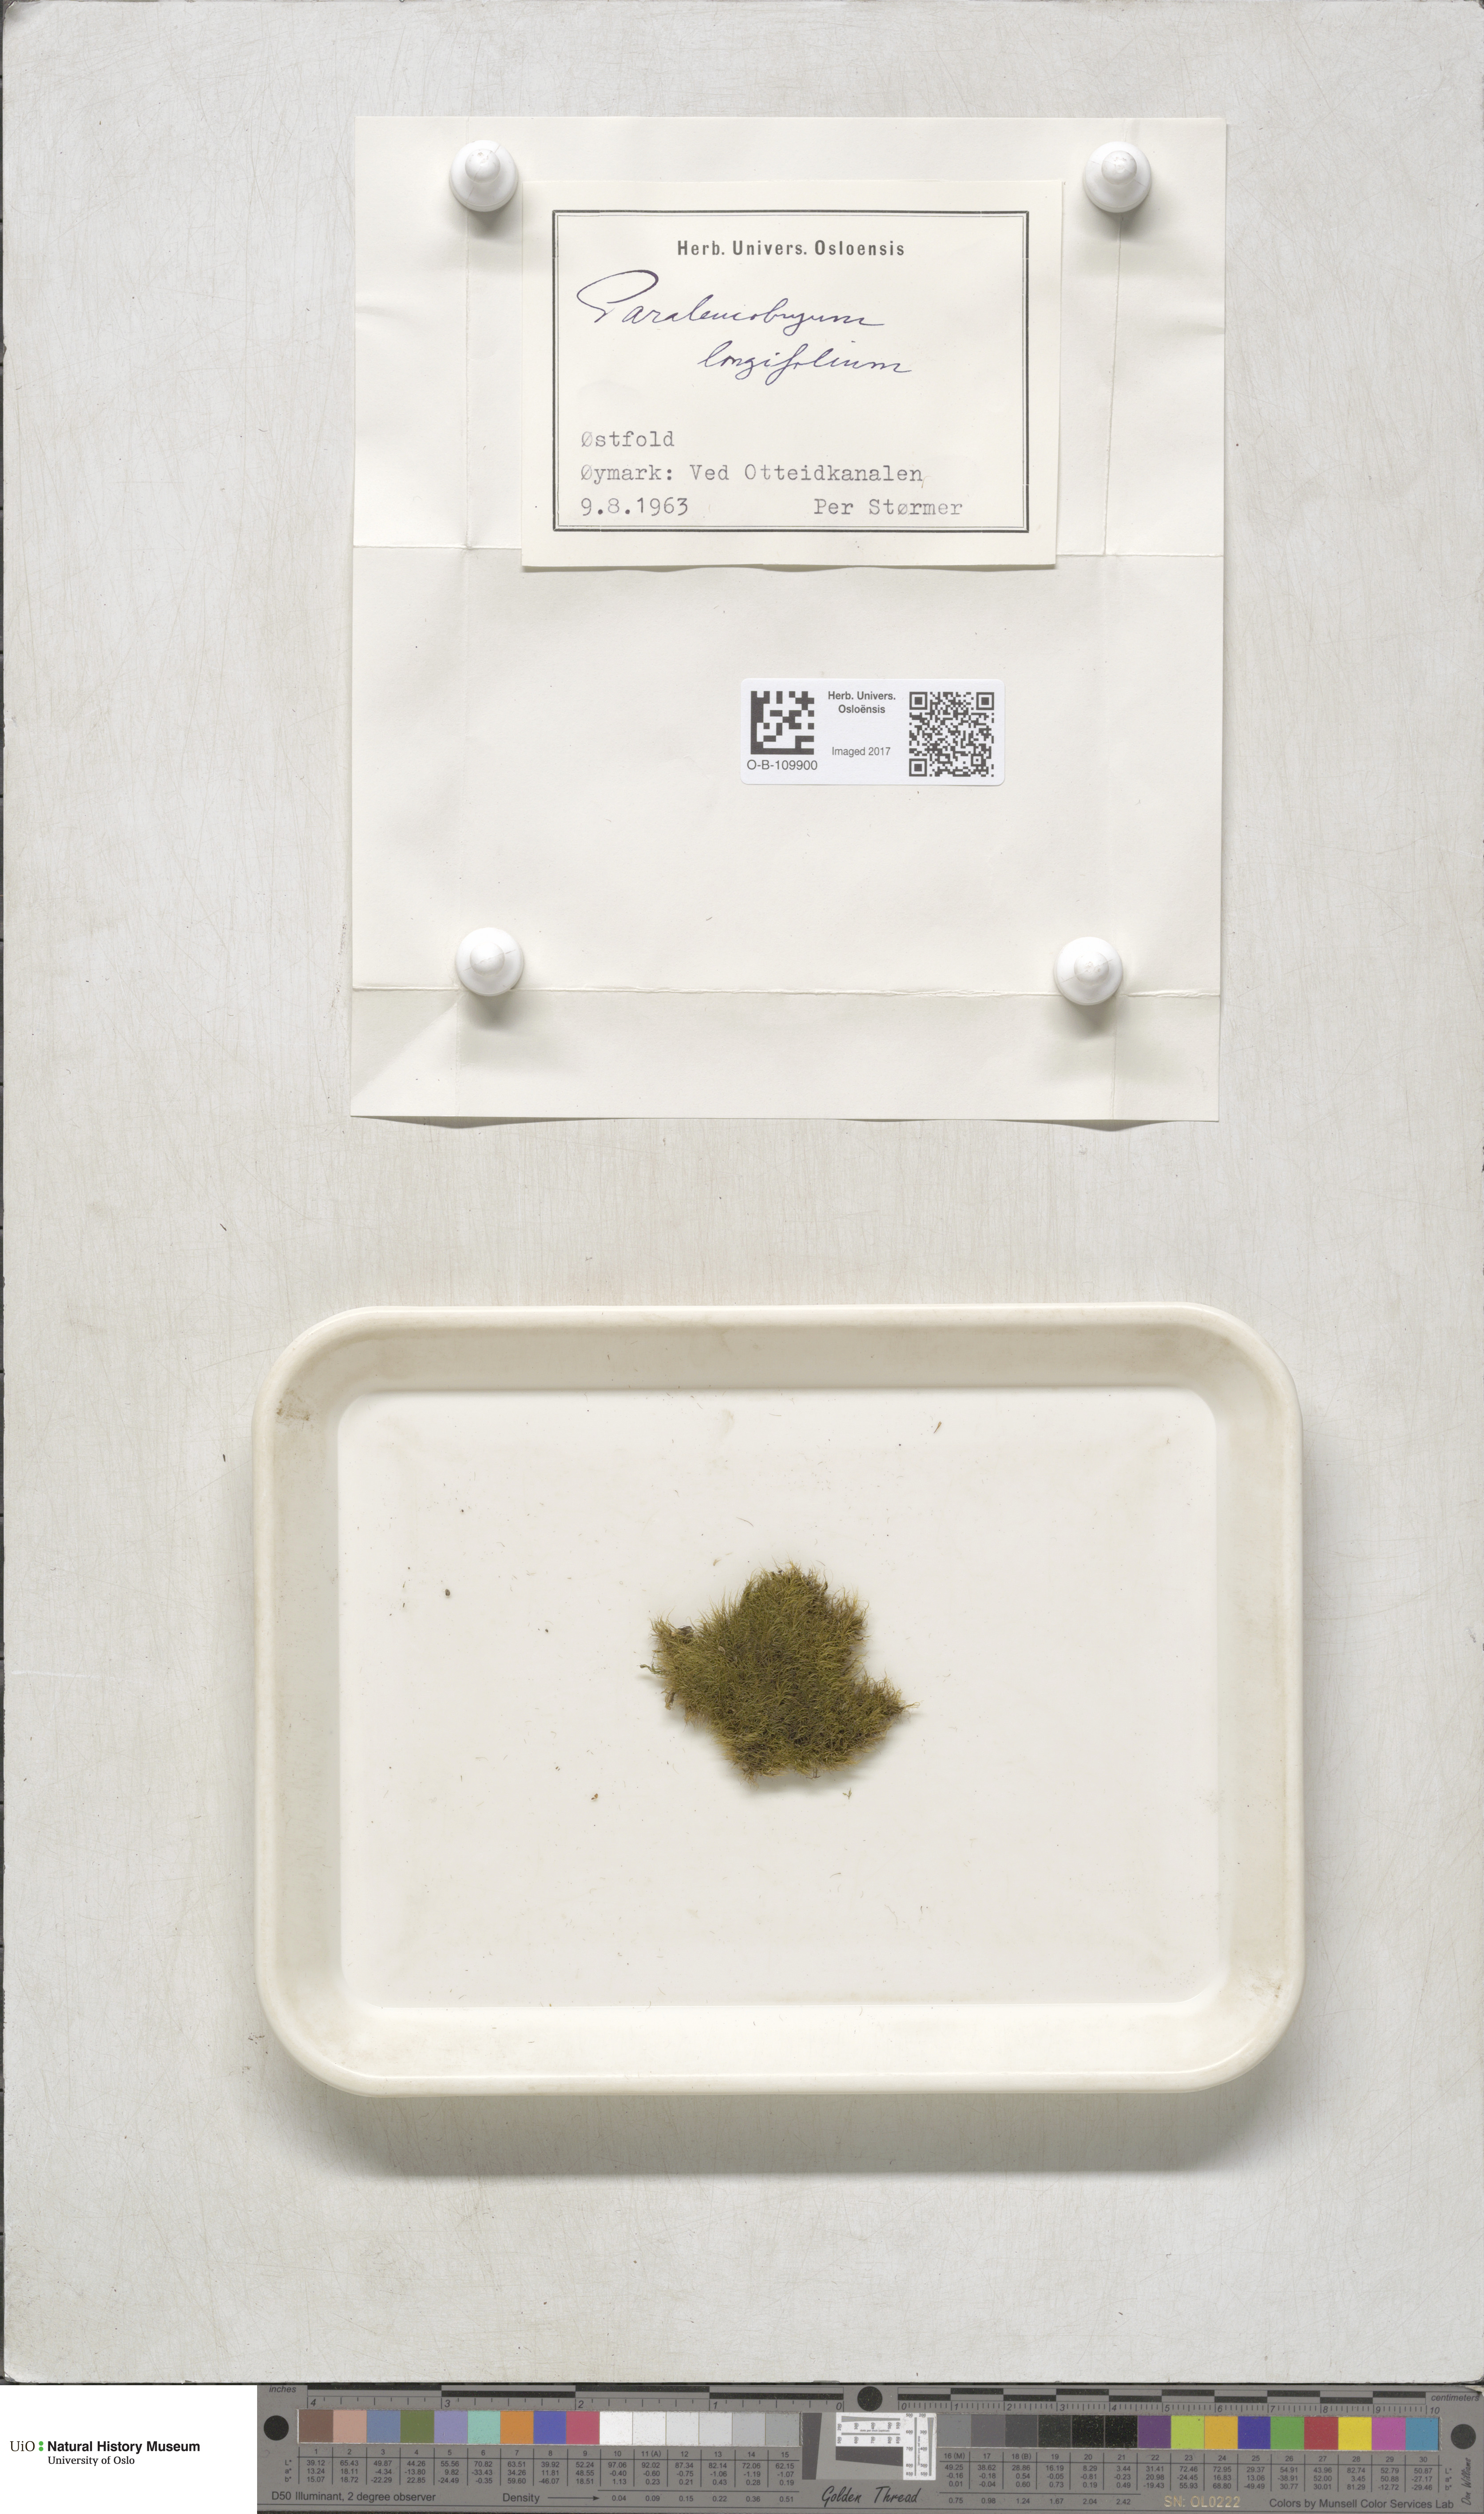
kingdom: Plantae
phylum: Bryophyta
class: Bryopsida
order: Dicranales
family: Dicranaceae
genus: Paraleucobryum
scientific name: Paraleucobryum longifolium
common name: Long-leaved fork moss
